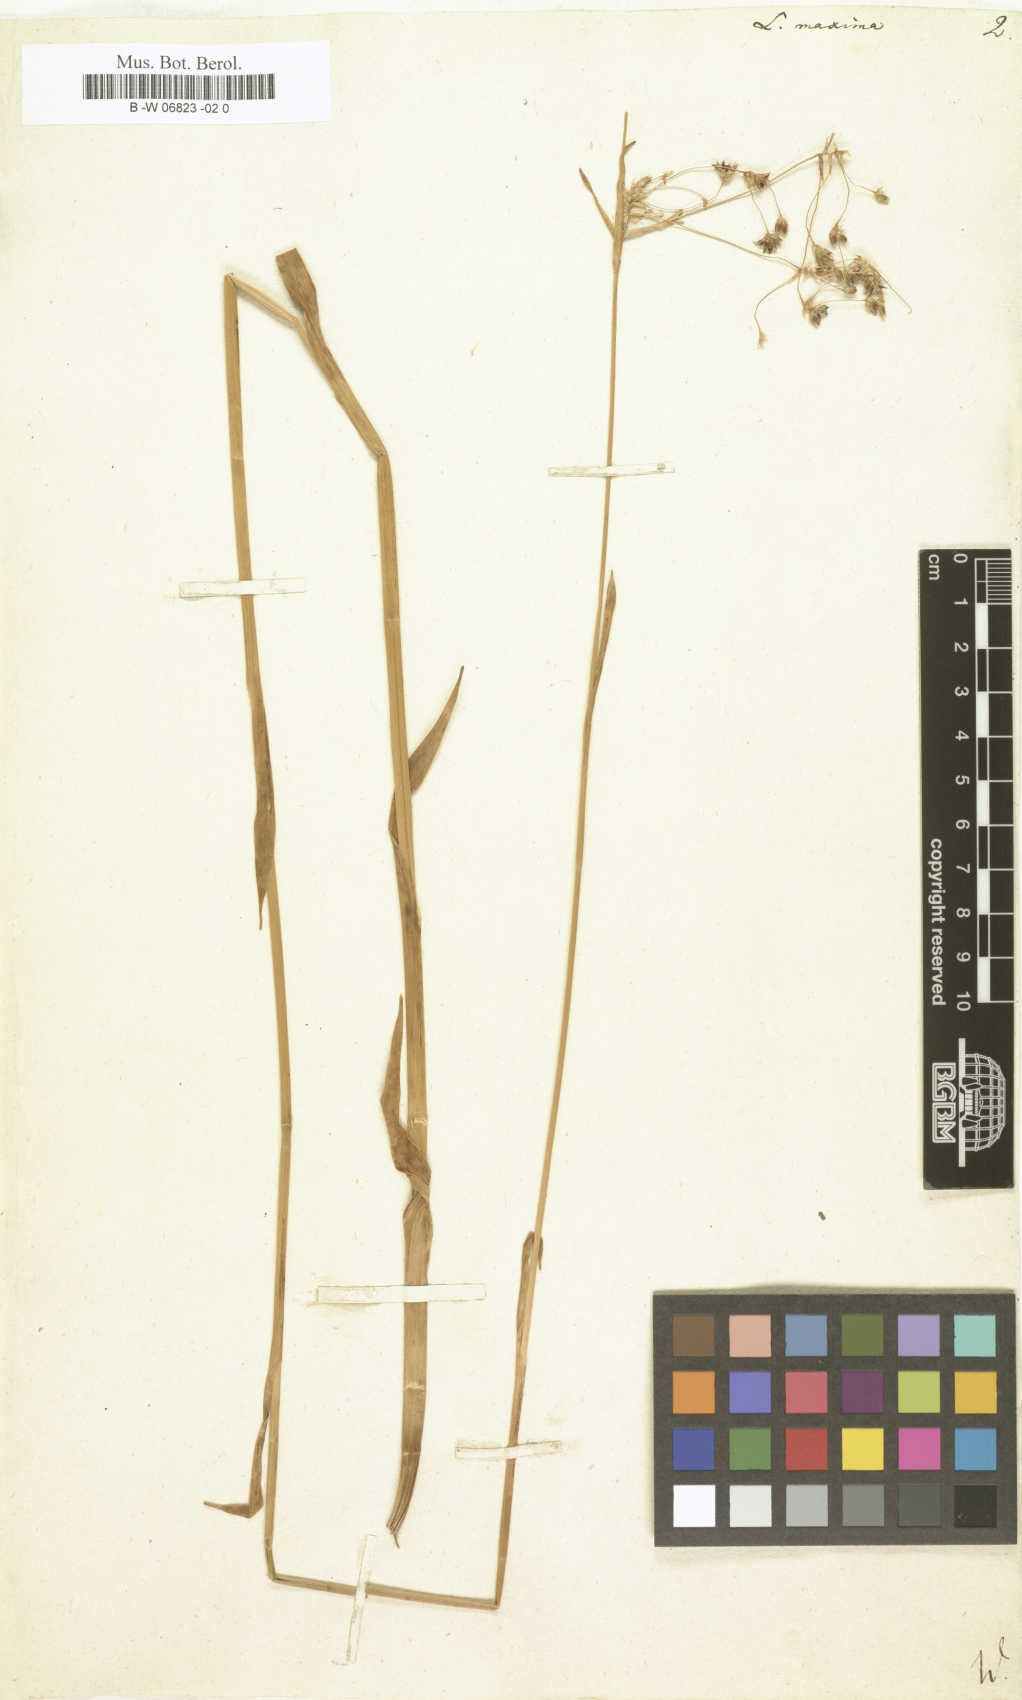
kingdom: Plantae
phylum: Tracheophyta
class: Liliopsida
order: Poales
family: Juncaceae
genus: Luzula
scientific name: Luzula sylvatica
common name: Great wood-rush
